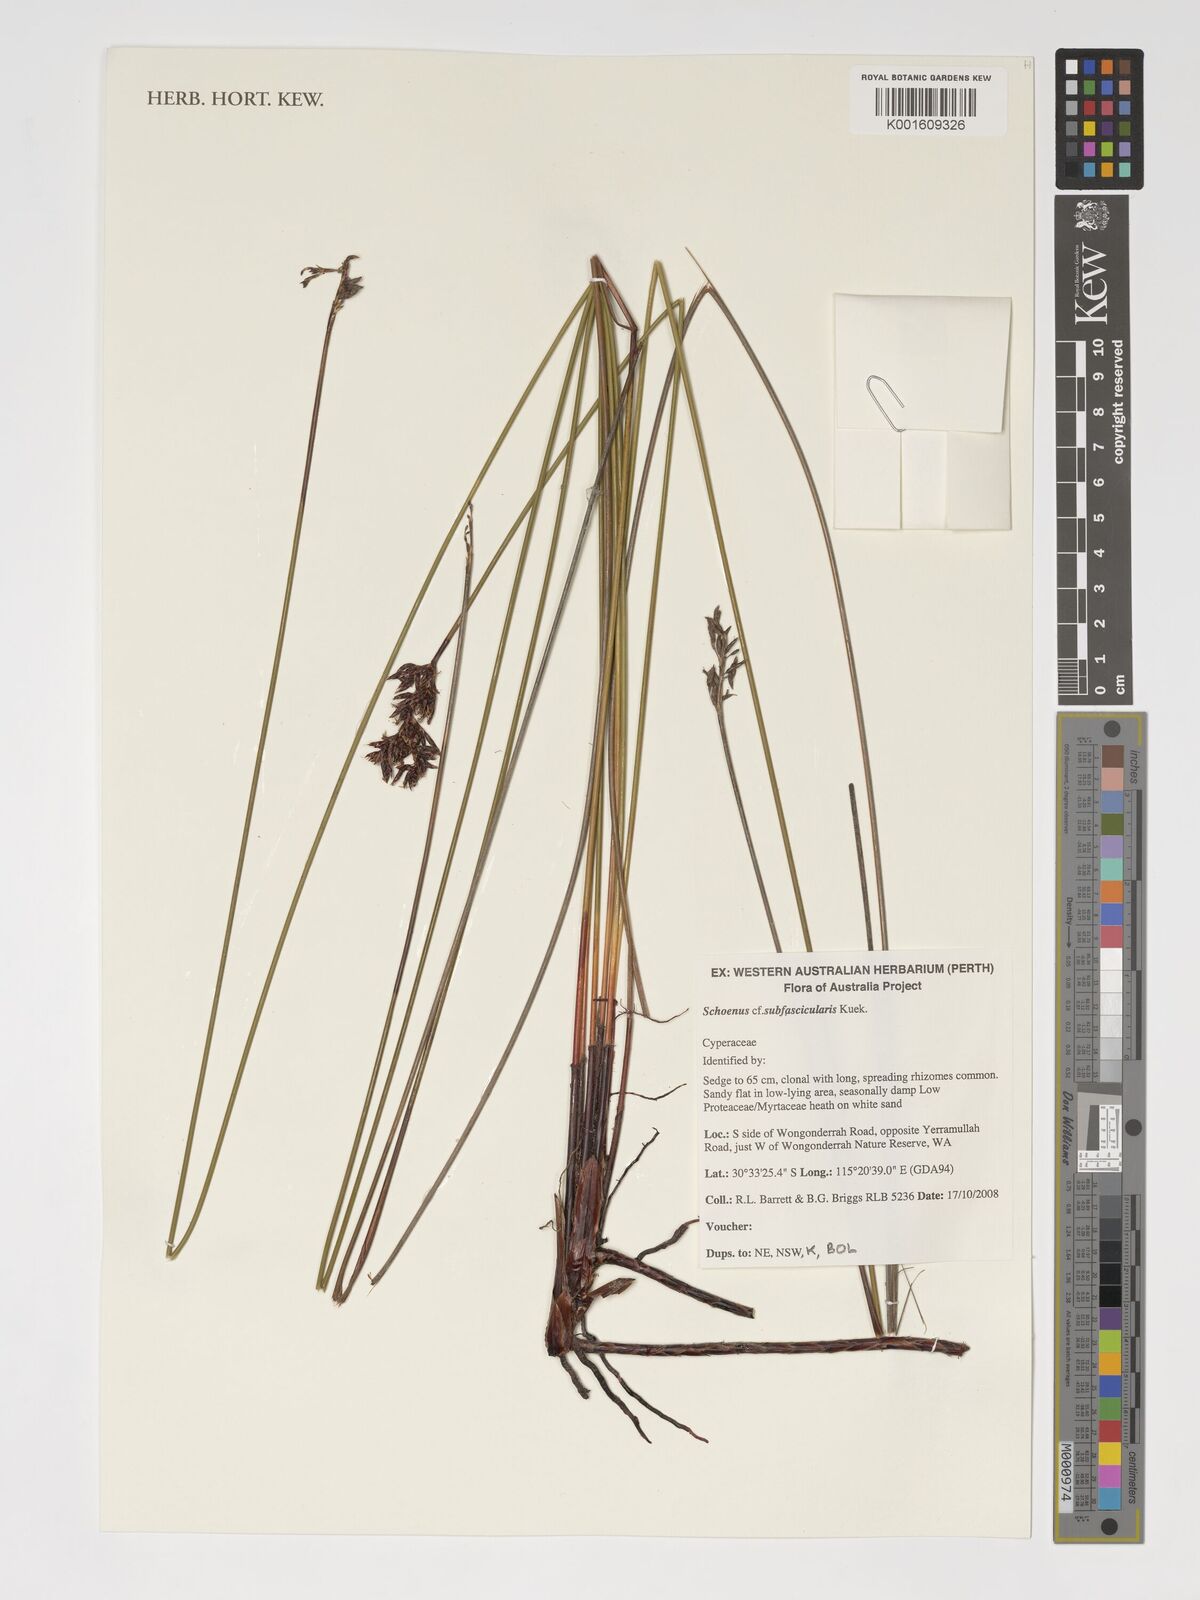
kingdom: Plantae
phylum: Tracheophyta
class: Liliopsida
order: Poales
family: Cyperaceae
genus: Schoenus
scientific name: Schoenus subfascicularis
